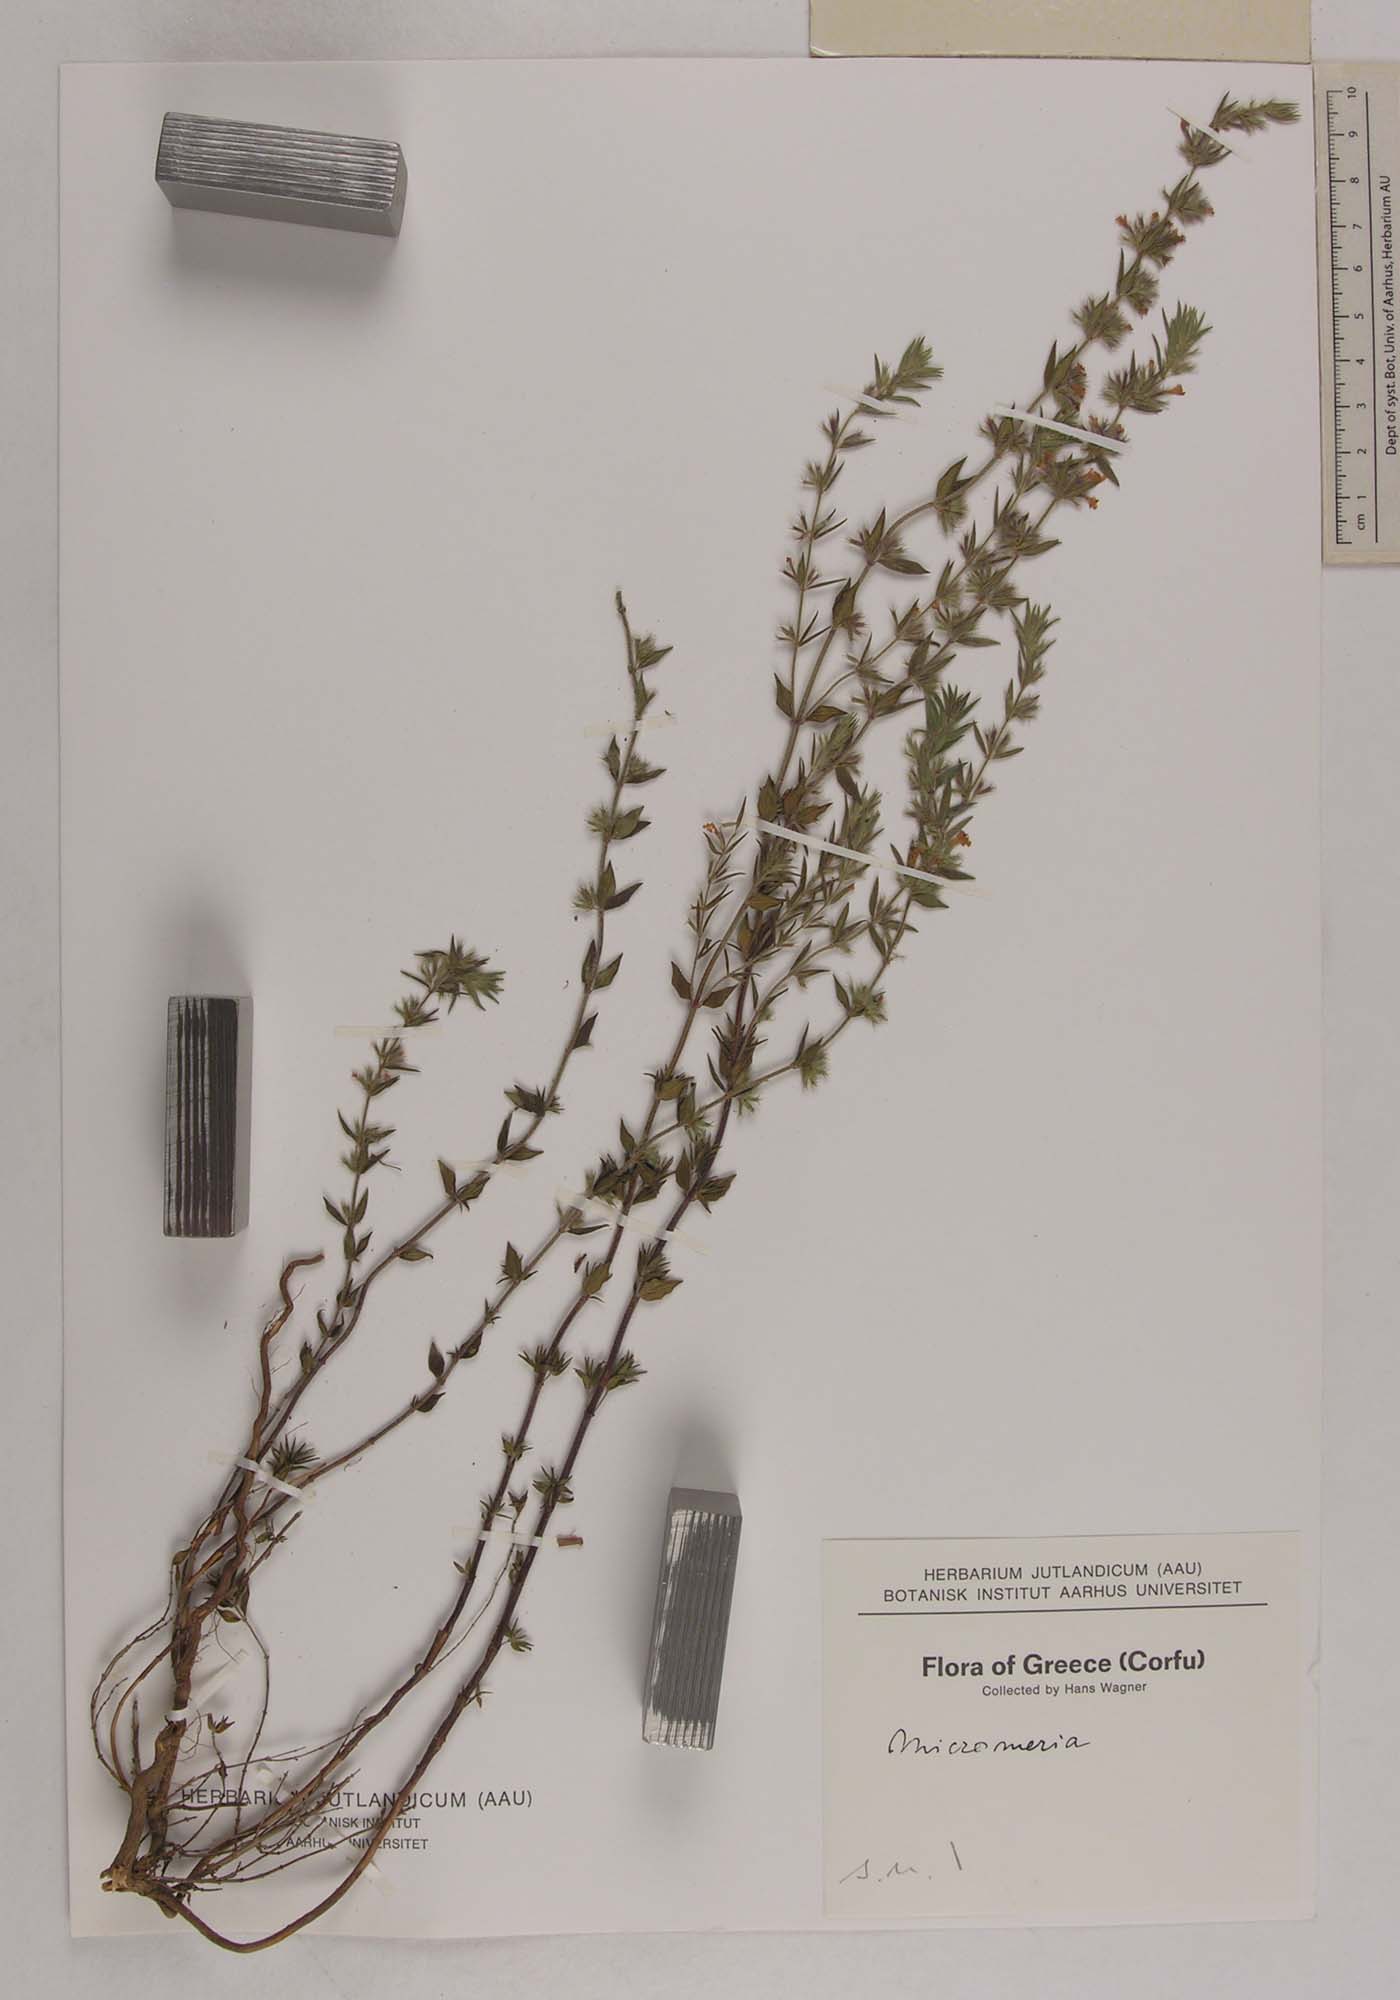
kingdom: Plantae
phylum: Tracheophyta
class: Magnoliopsida
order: Lamiales
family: Lamiaceae
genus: Micromeria
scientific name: Micromeria
